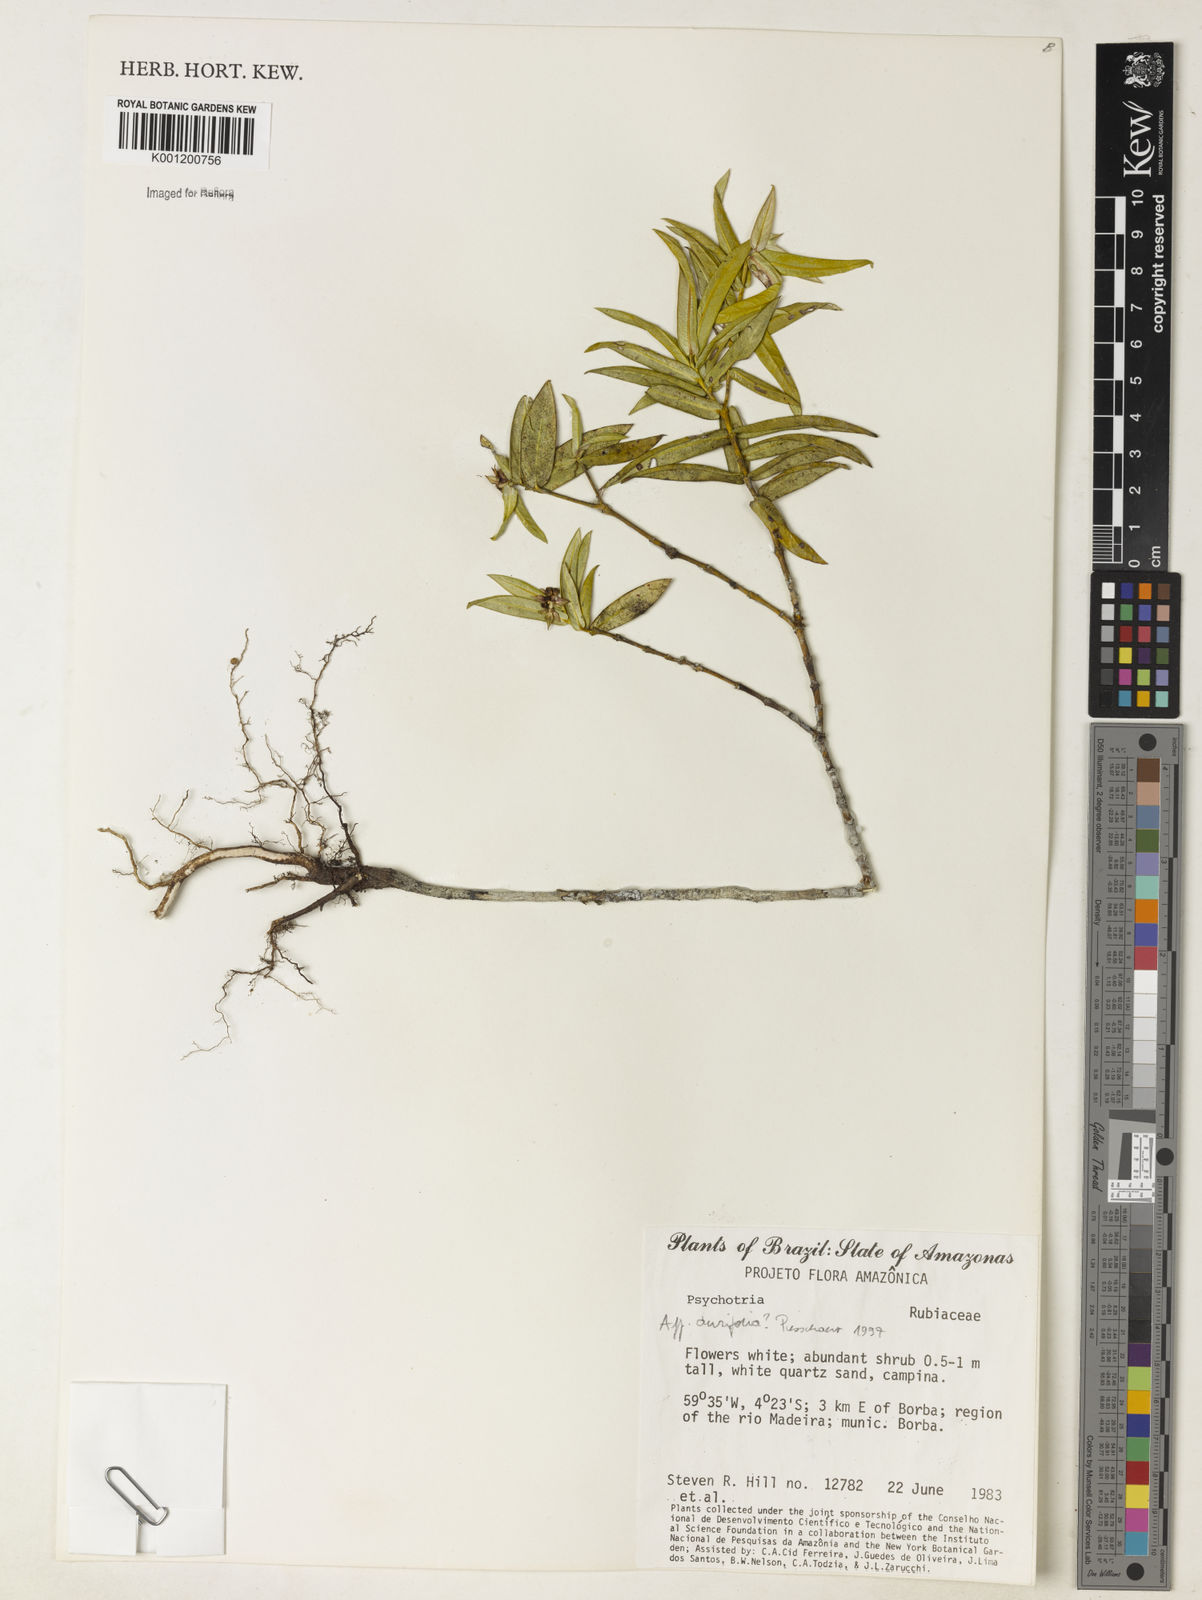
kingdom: Plantae
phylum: Tracheophyta
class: Magnoliopsida
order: Gentianales
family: Rubiaceae
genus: Psychotria
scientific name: Psychotria
